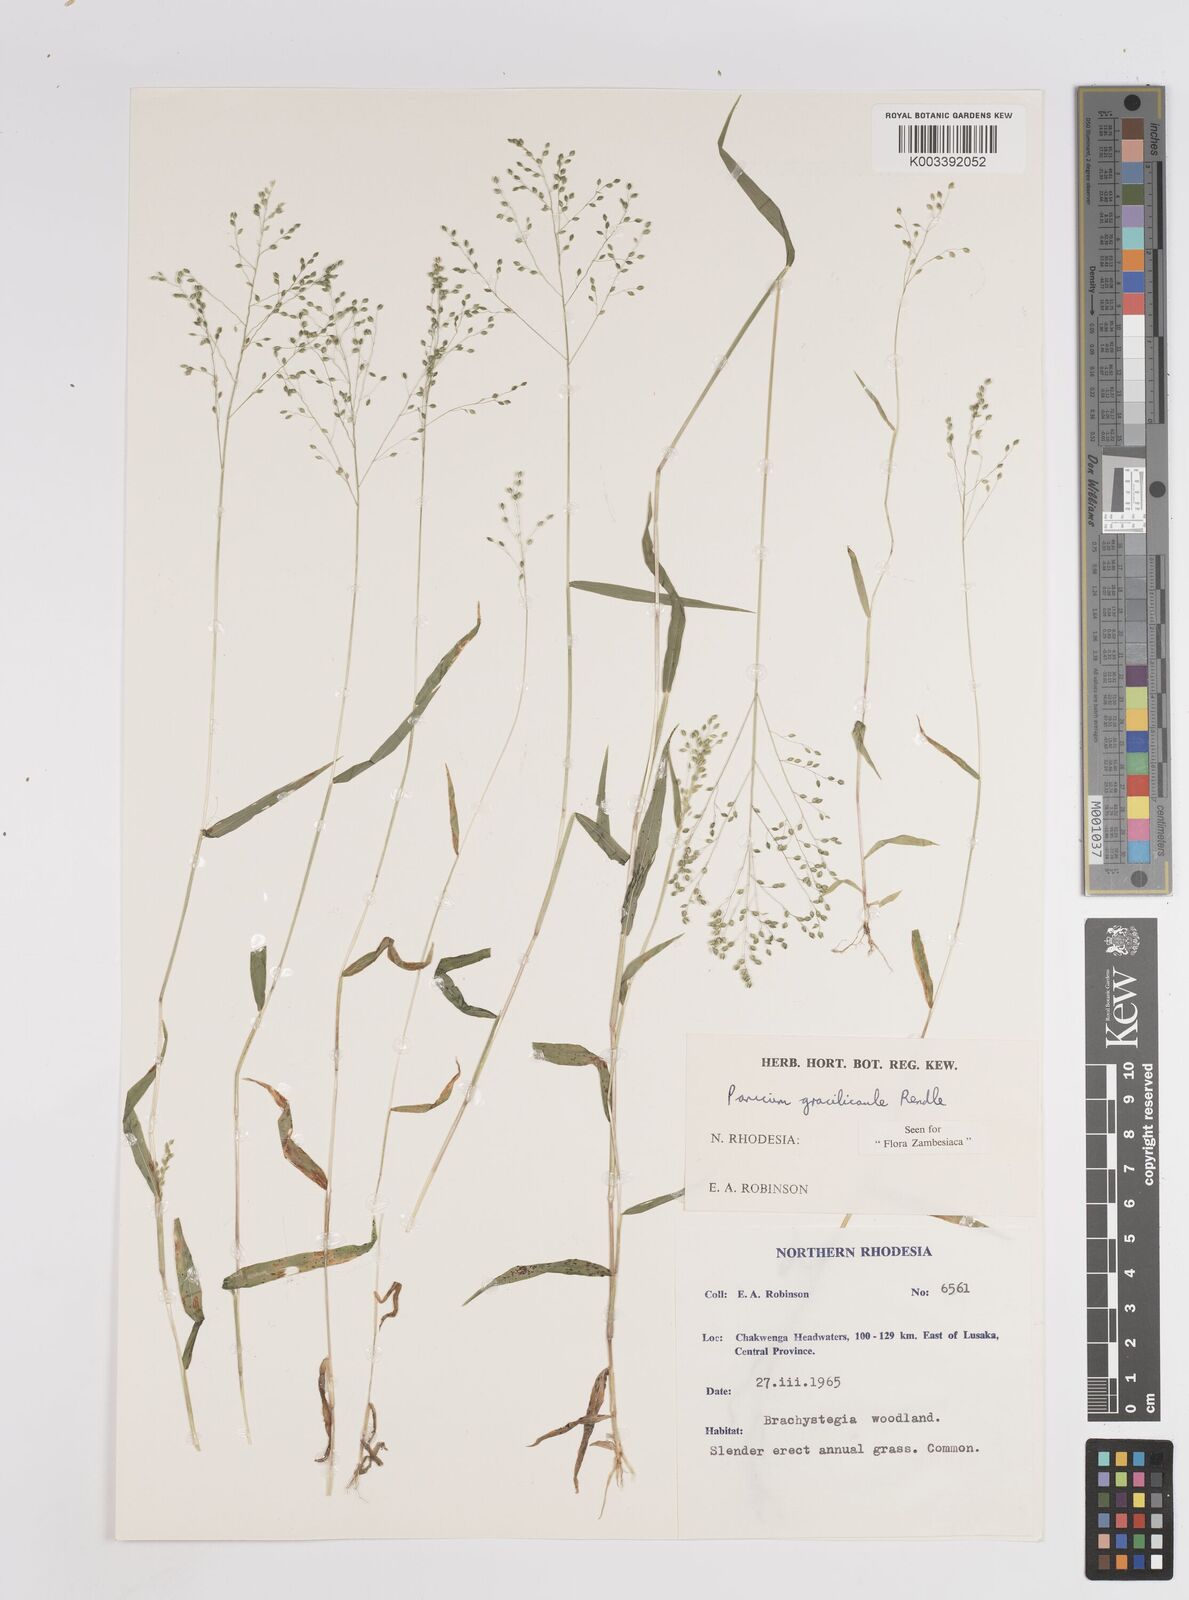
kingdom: Plantae
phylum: Tracheophyta
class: Liliopsida
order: Poales
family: Poaceae
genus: Trichanthecium
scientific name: Trichanthecium gracilicaule
